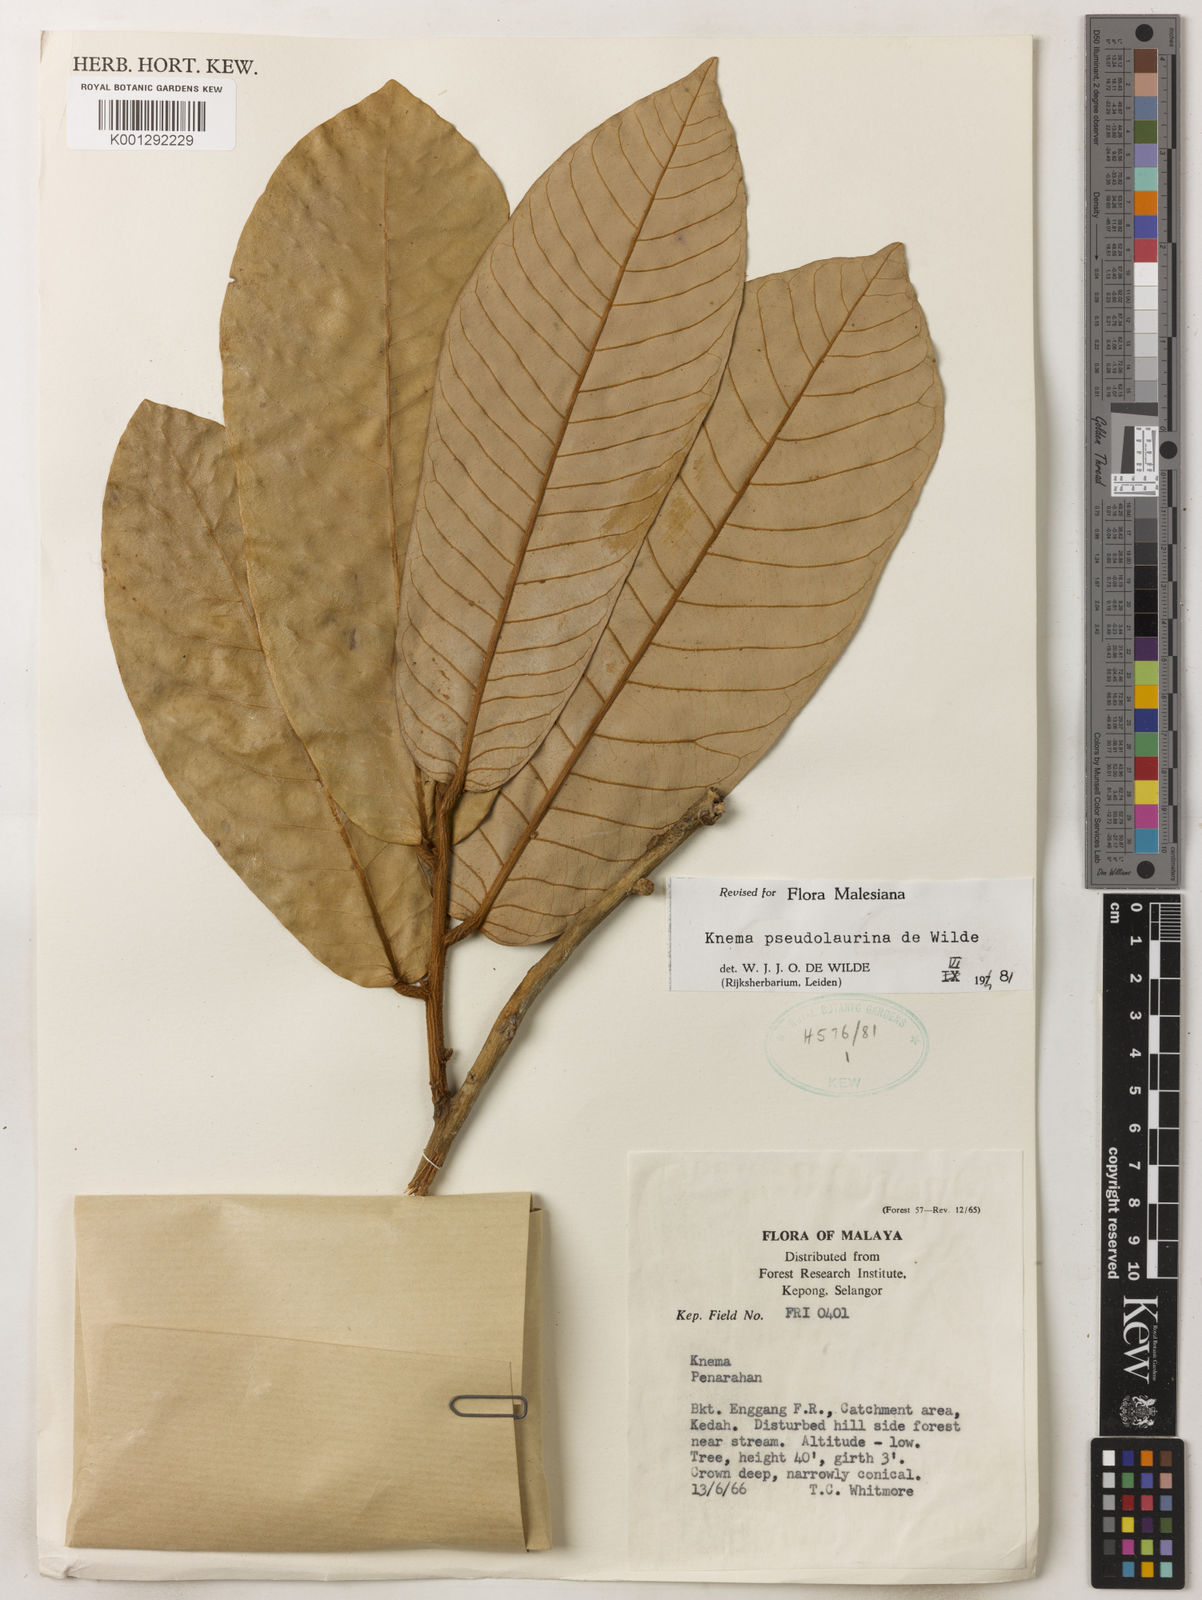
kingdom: Plantae
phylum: Tracheophyta
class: Magnoliopsida
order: Magnoliales
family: Myristicaceae
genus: Knema
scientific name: Knema pseudolaurina
